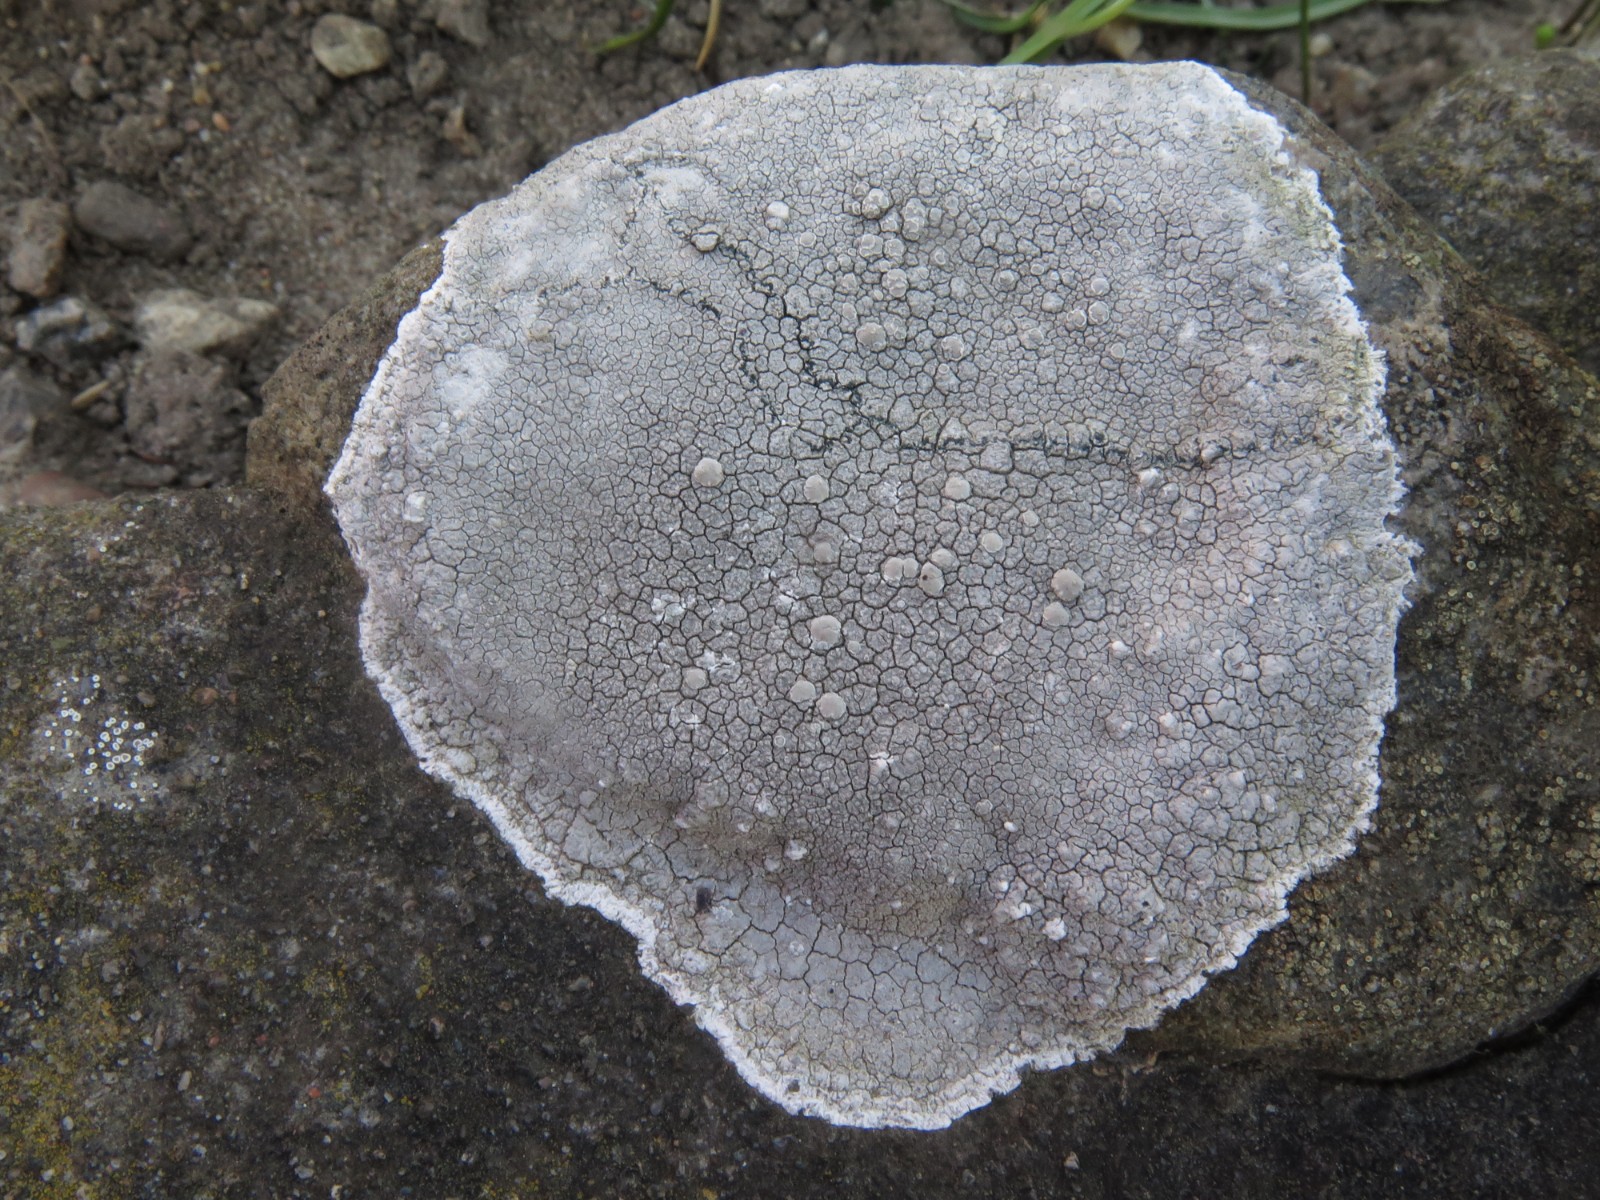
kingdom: Fungi
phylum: Ascomycota
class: Lecanoromycetes
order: Lecanorales
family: Lecanoraceae
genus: Glaucomaria
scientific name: Glaucomaria rupicola
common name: stengærde-kantskivelav
